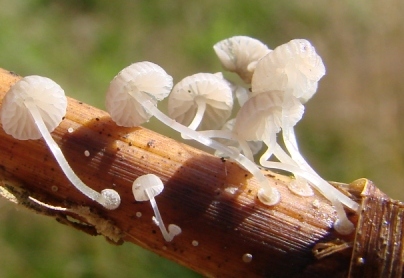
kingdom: Fungi
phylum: Basidiomycota
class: Agaricomycetes
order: Agaricales
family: Mycenaceae
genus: Mycena
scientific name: Mycena bulbosa
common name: siv-huesvamp
